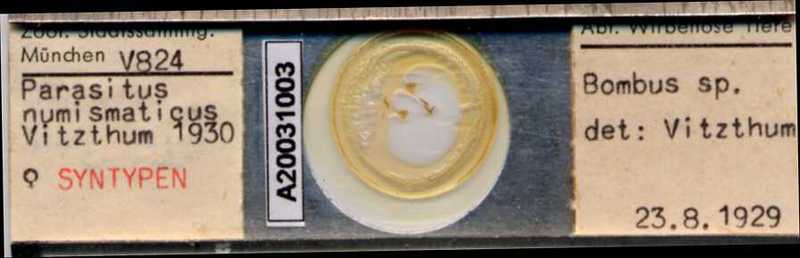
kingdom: Animalia
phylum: Arthropoda
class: Arachnida
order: Mesostigmata
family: Parasitidae
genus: Parasitus
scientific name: Parasitus
